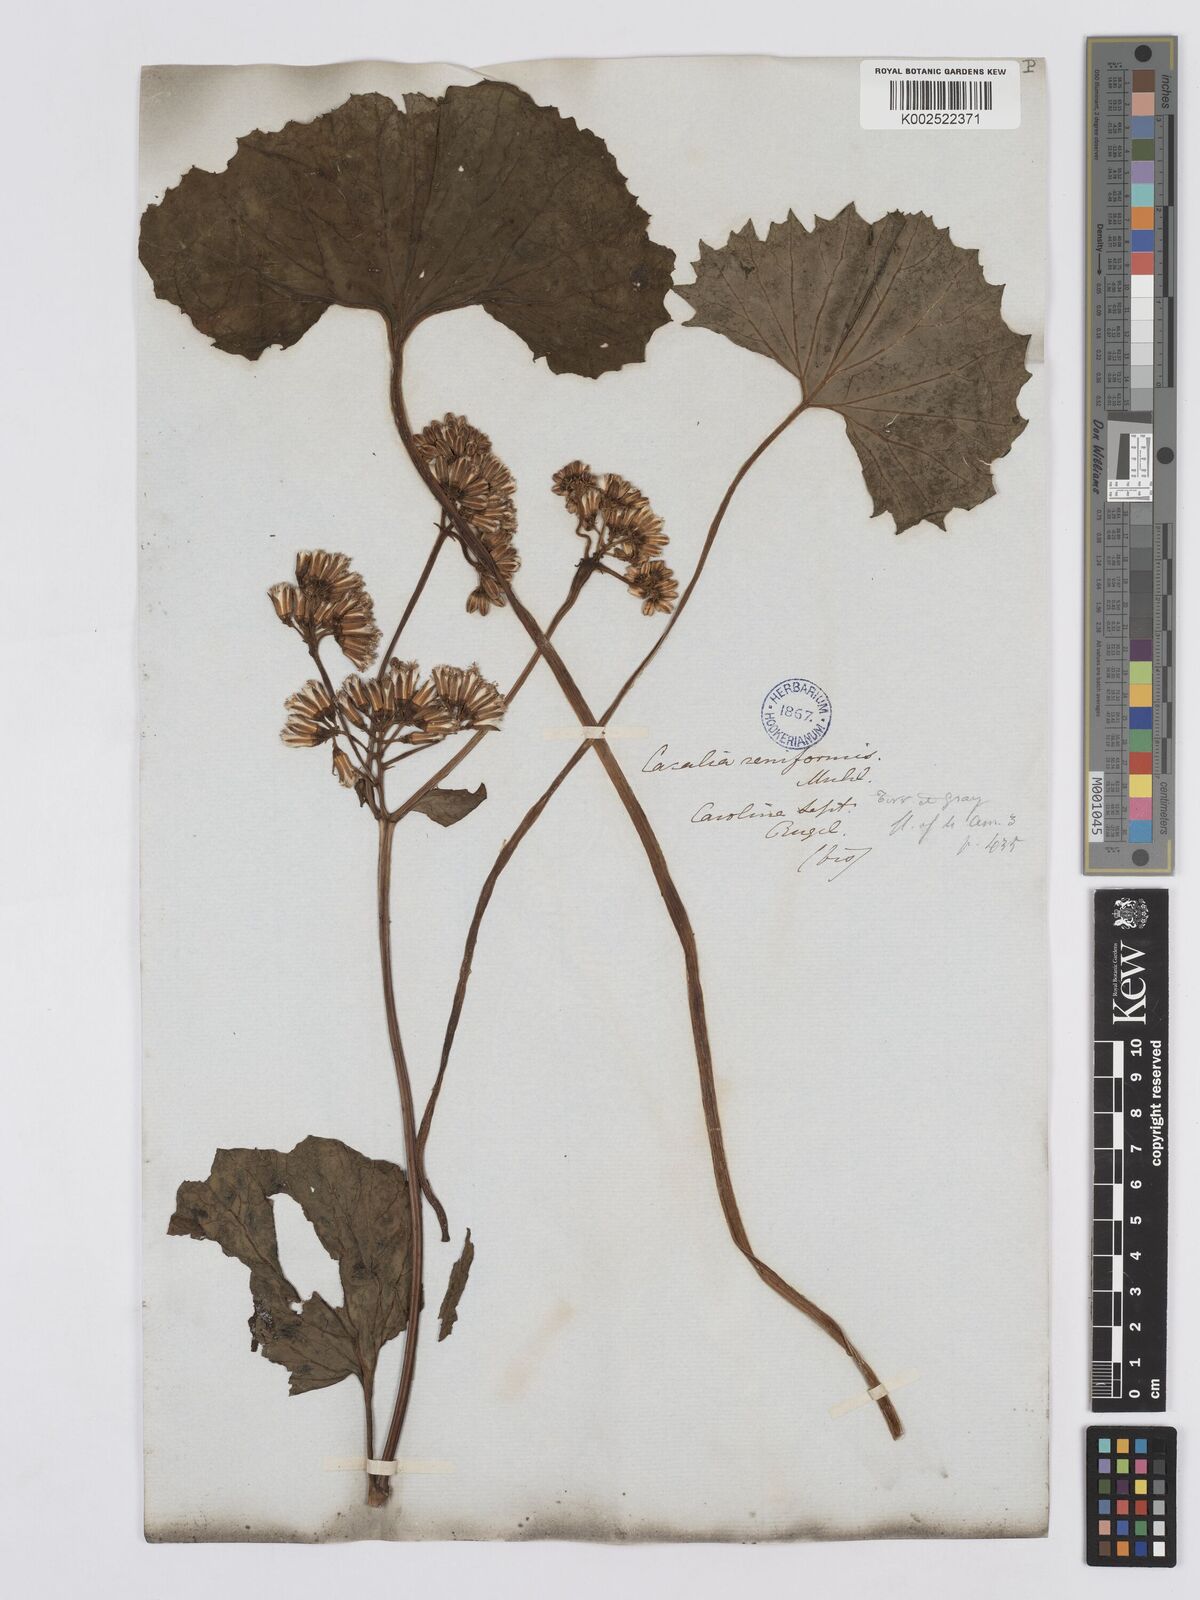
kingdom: Plantae
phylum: Tracheophyta
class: Magnoliopsida
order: Asterales
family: Asteraceae
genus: Arnoglossum
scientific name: Arnoglossum diversifolium
